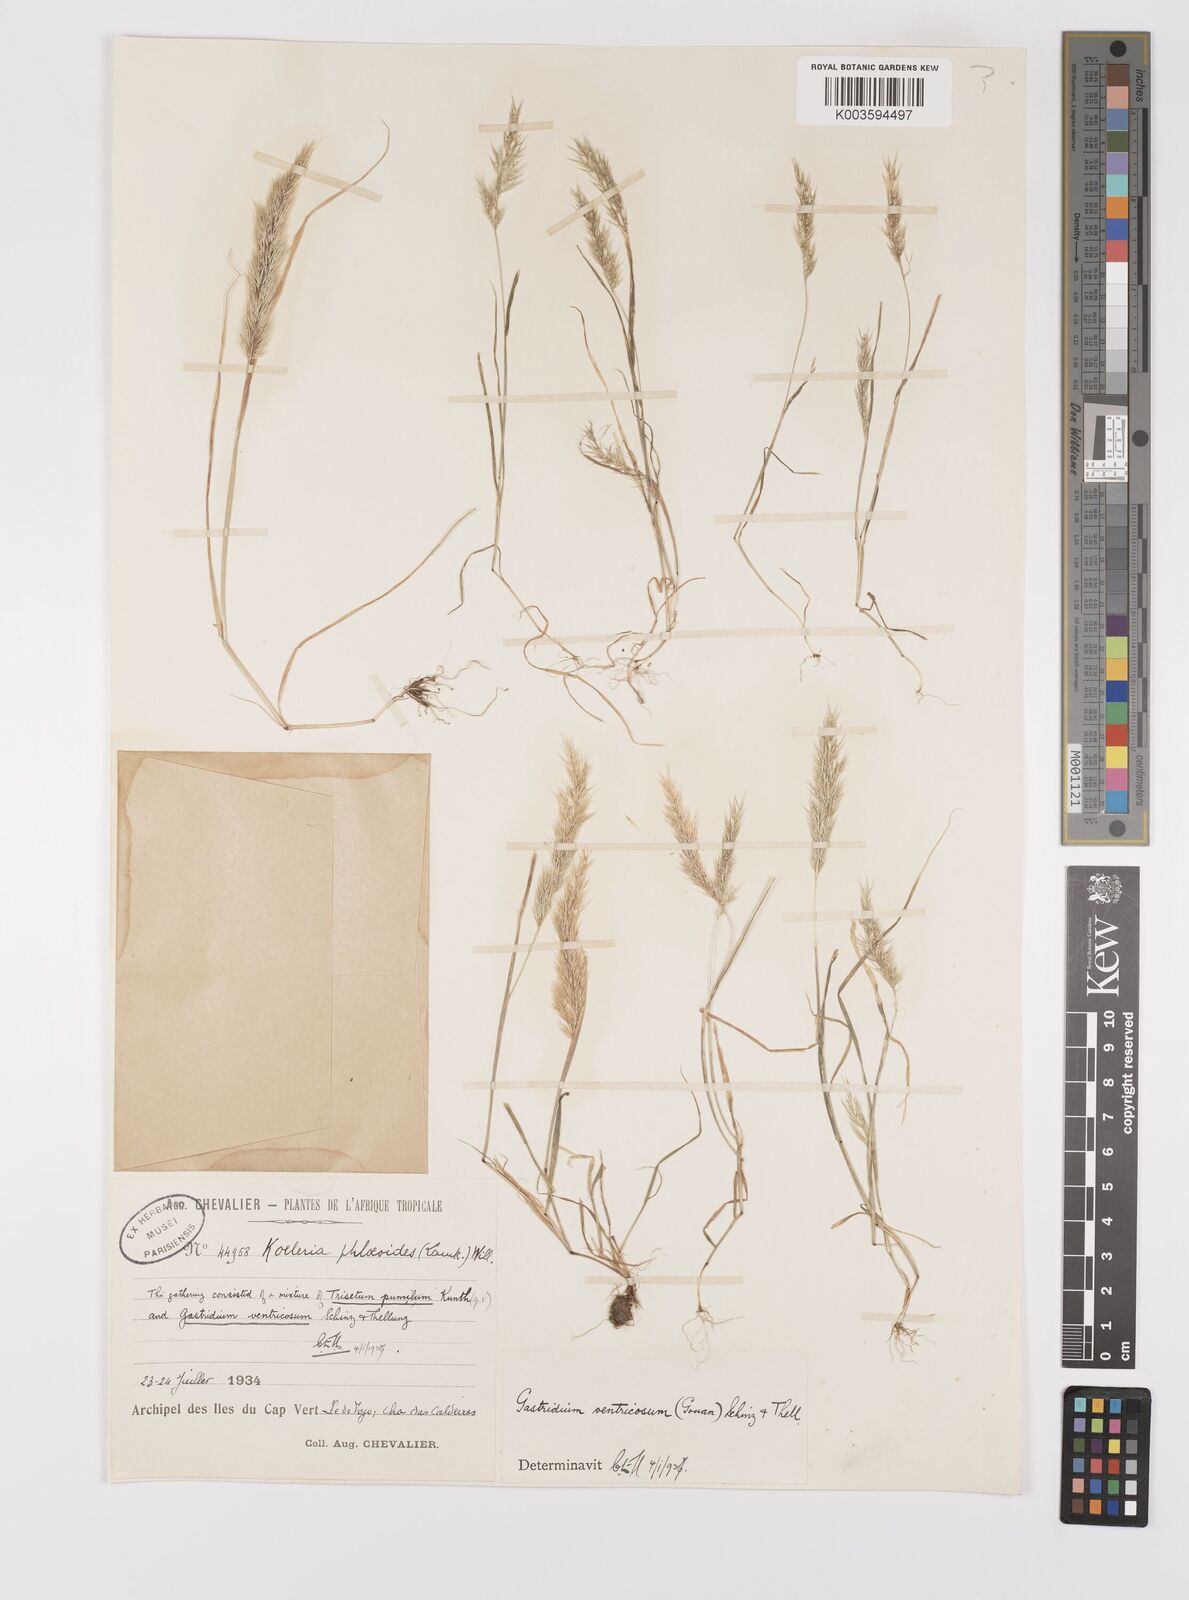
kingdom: Plantae
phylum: Tracheophyta
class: Liliopsida
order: Poales
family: Poaceae
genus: Gastridium
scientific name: Gastridium phleoides
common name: Nit grass
